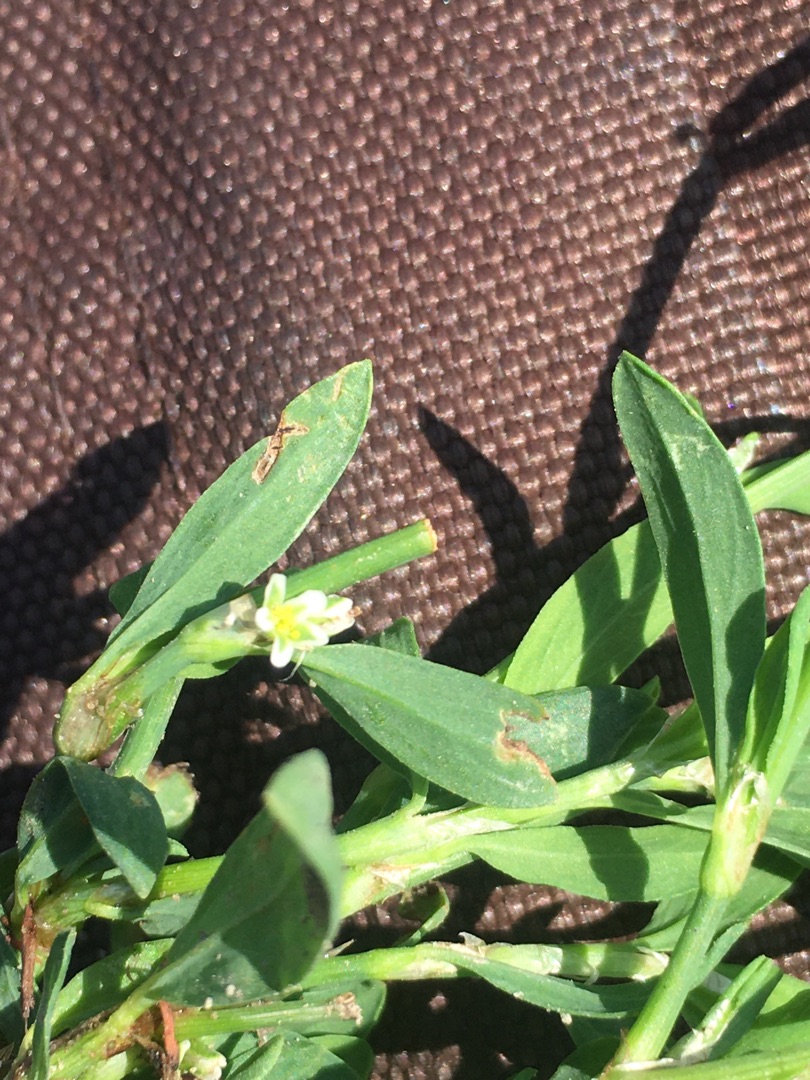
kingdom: Plantae
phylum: Tracheophyta
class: Magnoliopsida
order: Caryophyllales
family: Polygonaceae
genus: Polygonum
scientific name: Polygonum aviculare
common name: Vej-pileurt
